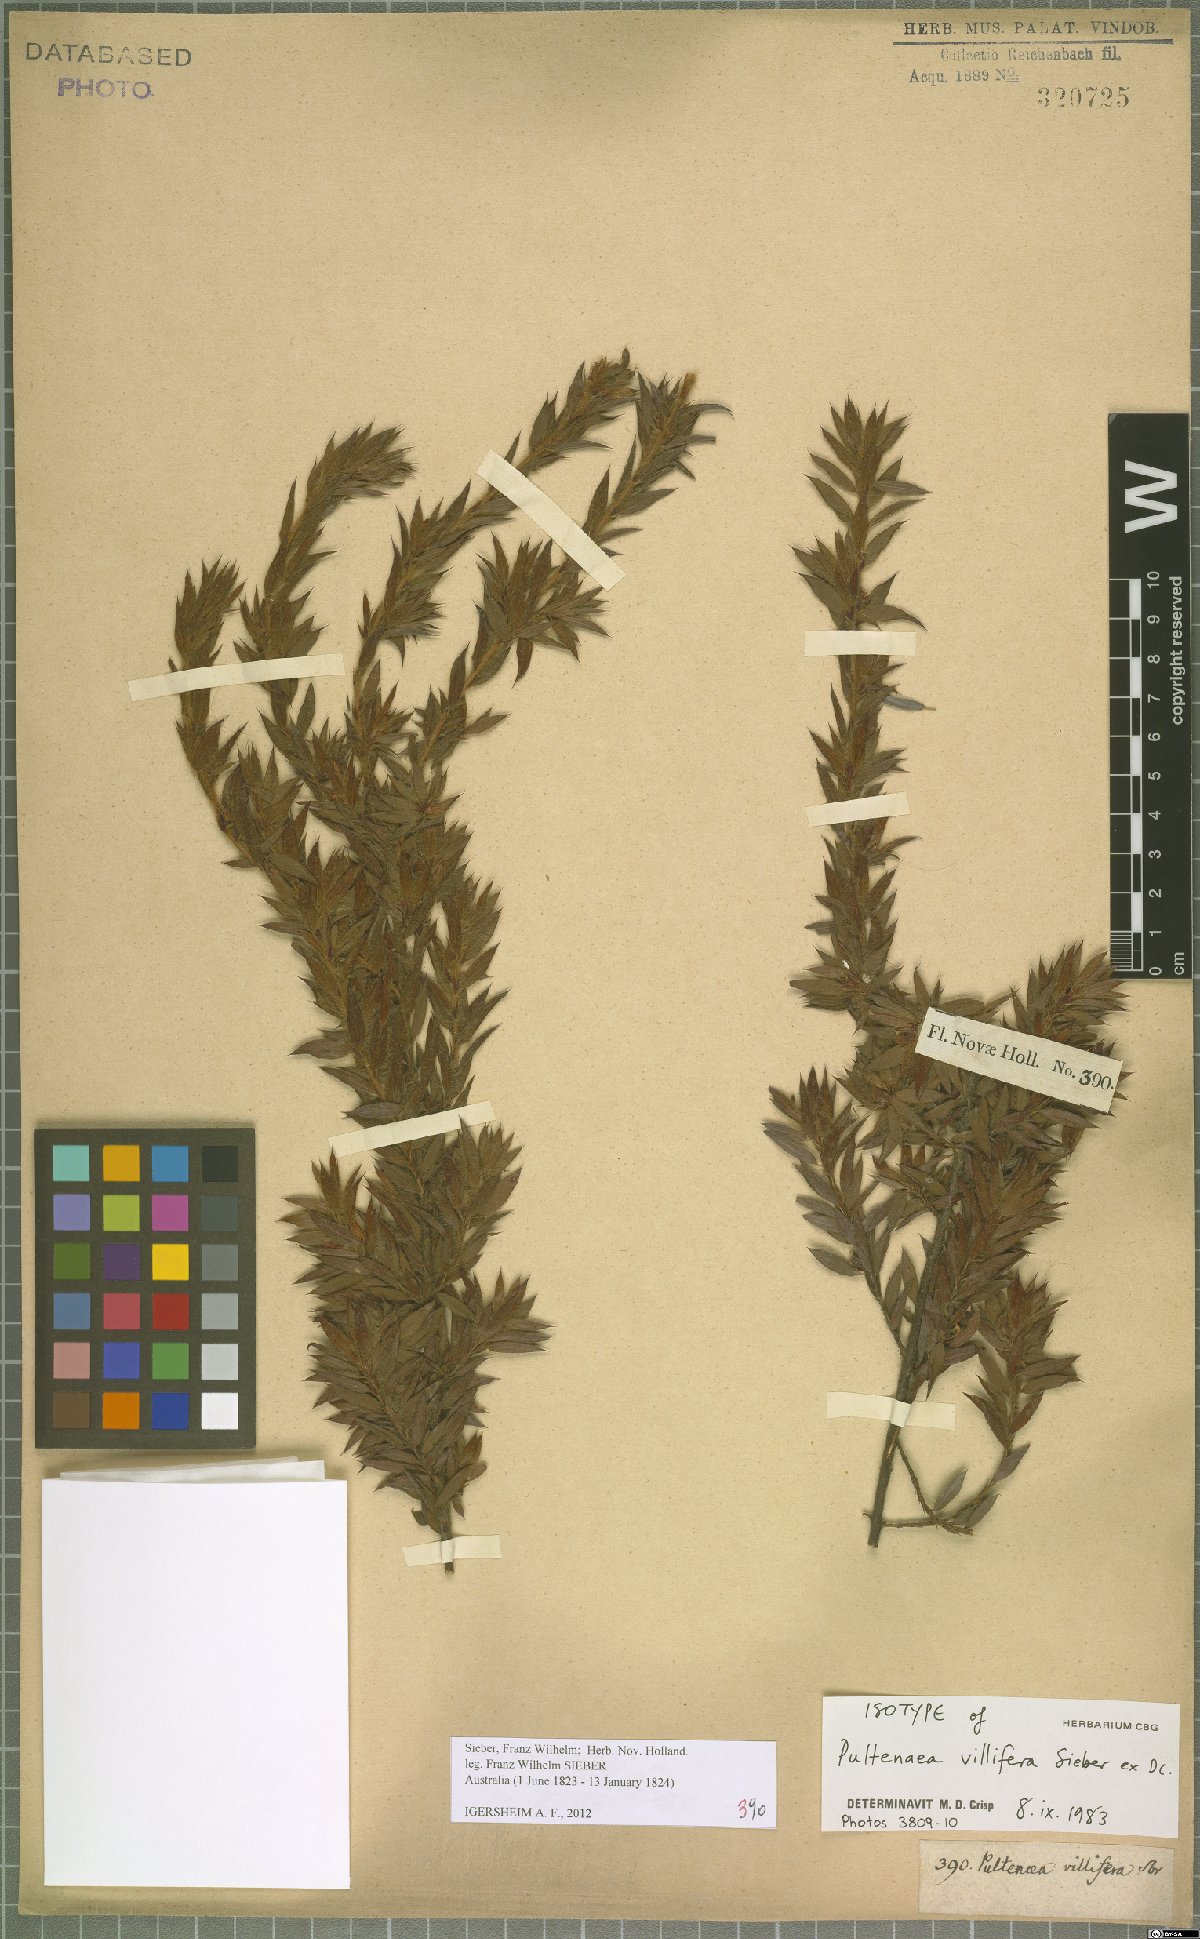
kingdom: Plantae
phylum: Tracheophyta
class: Magnoliopsida
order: Fabales
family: Fabaceae
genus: Pultenaea
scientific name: Pultenaea villifera
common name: Yellow bush-pea
